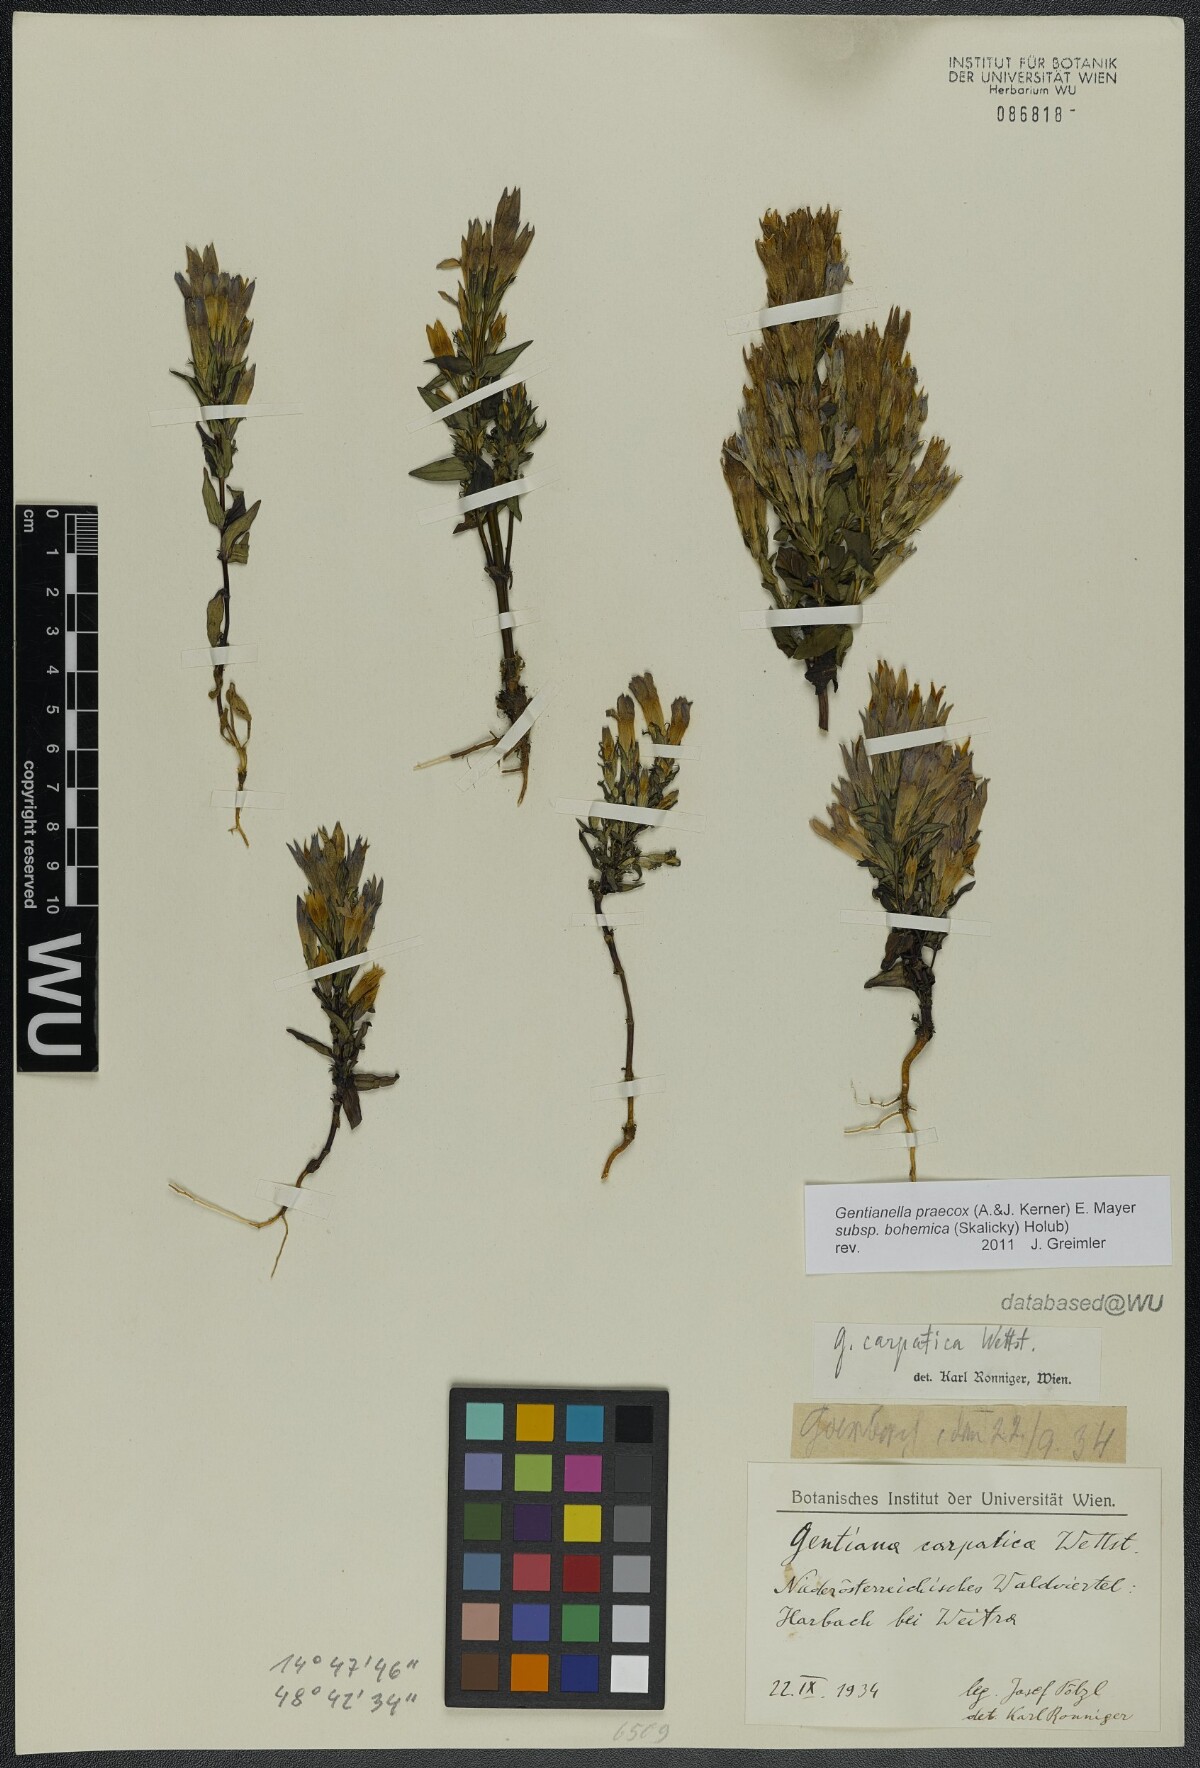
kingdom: Plantae
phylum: Tracheophyta
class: Magnoliopsida
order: Gentianales
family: Gentianaceae
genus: Gentianella
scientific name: Gentianella praecox
